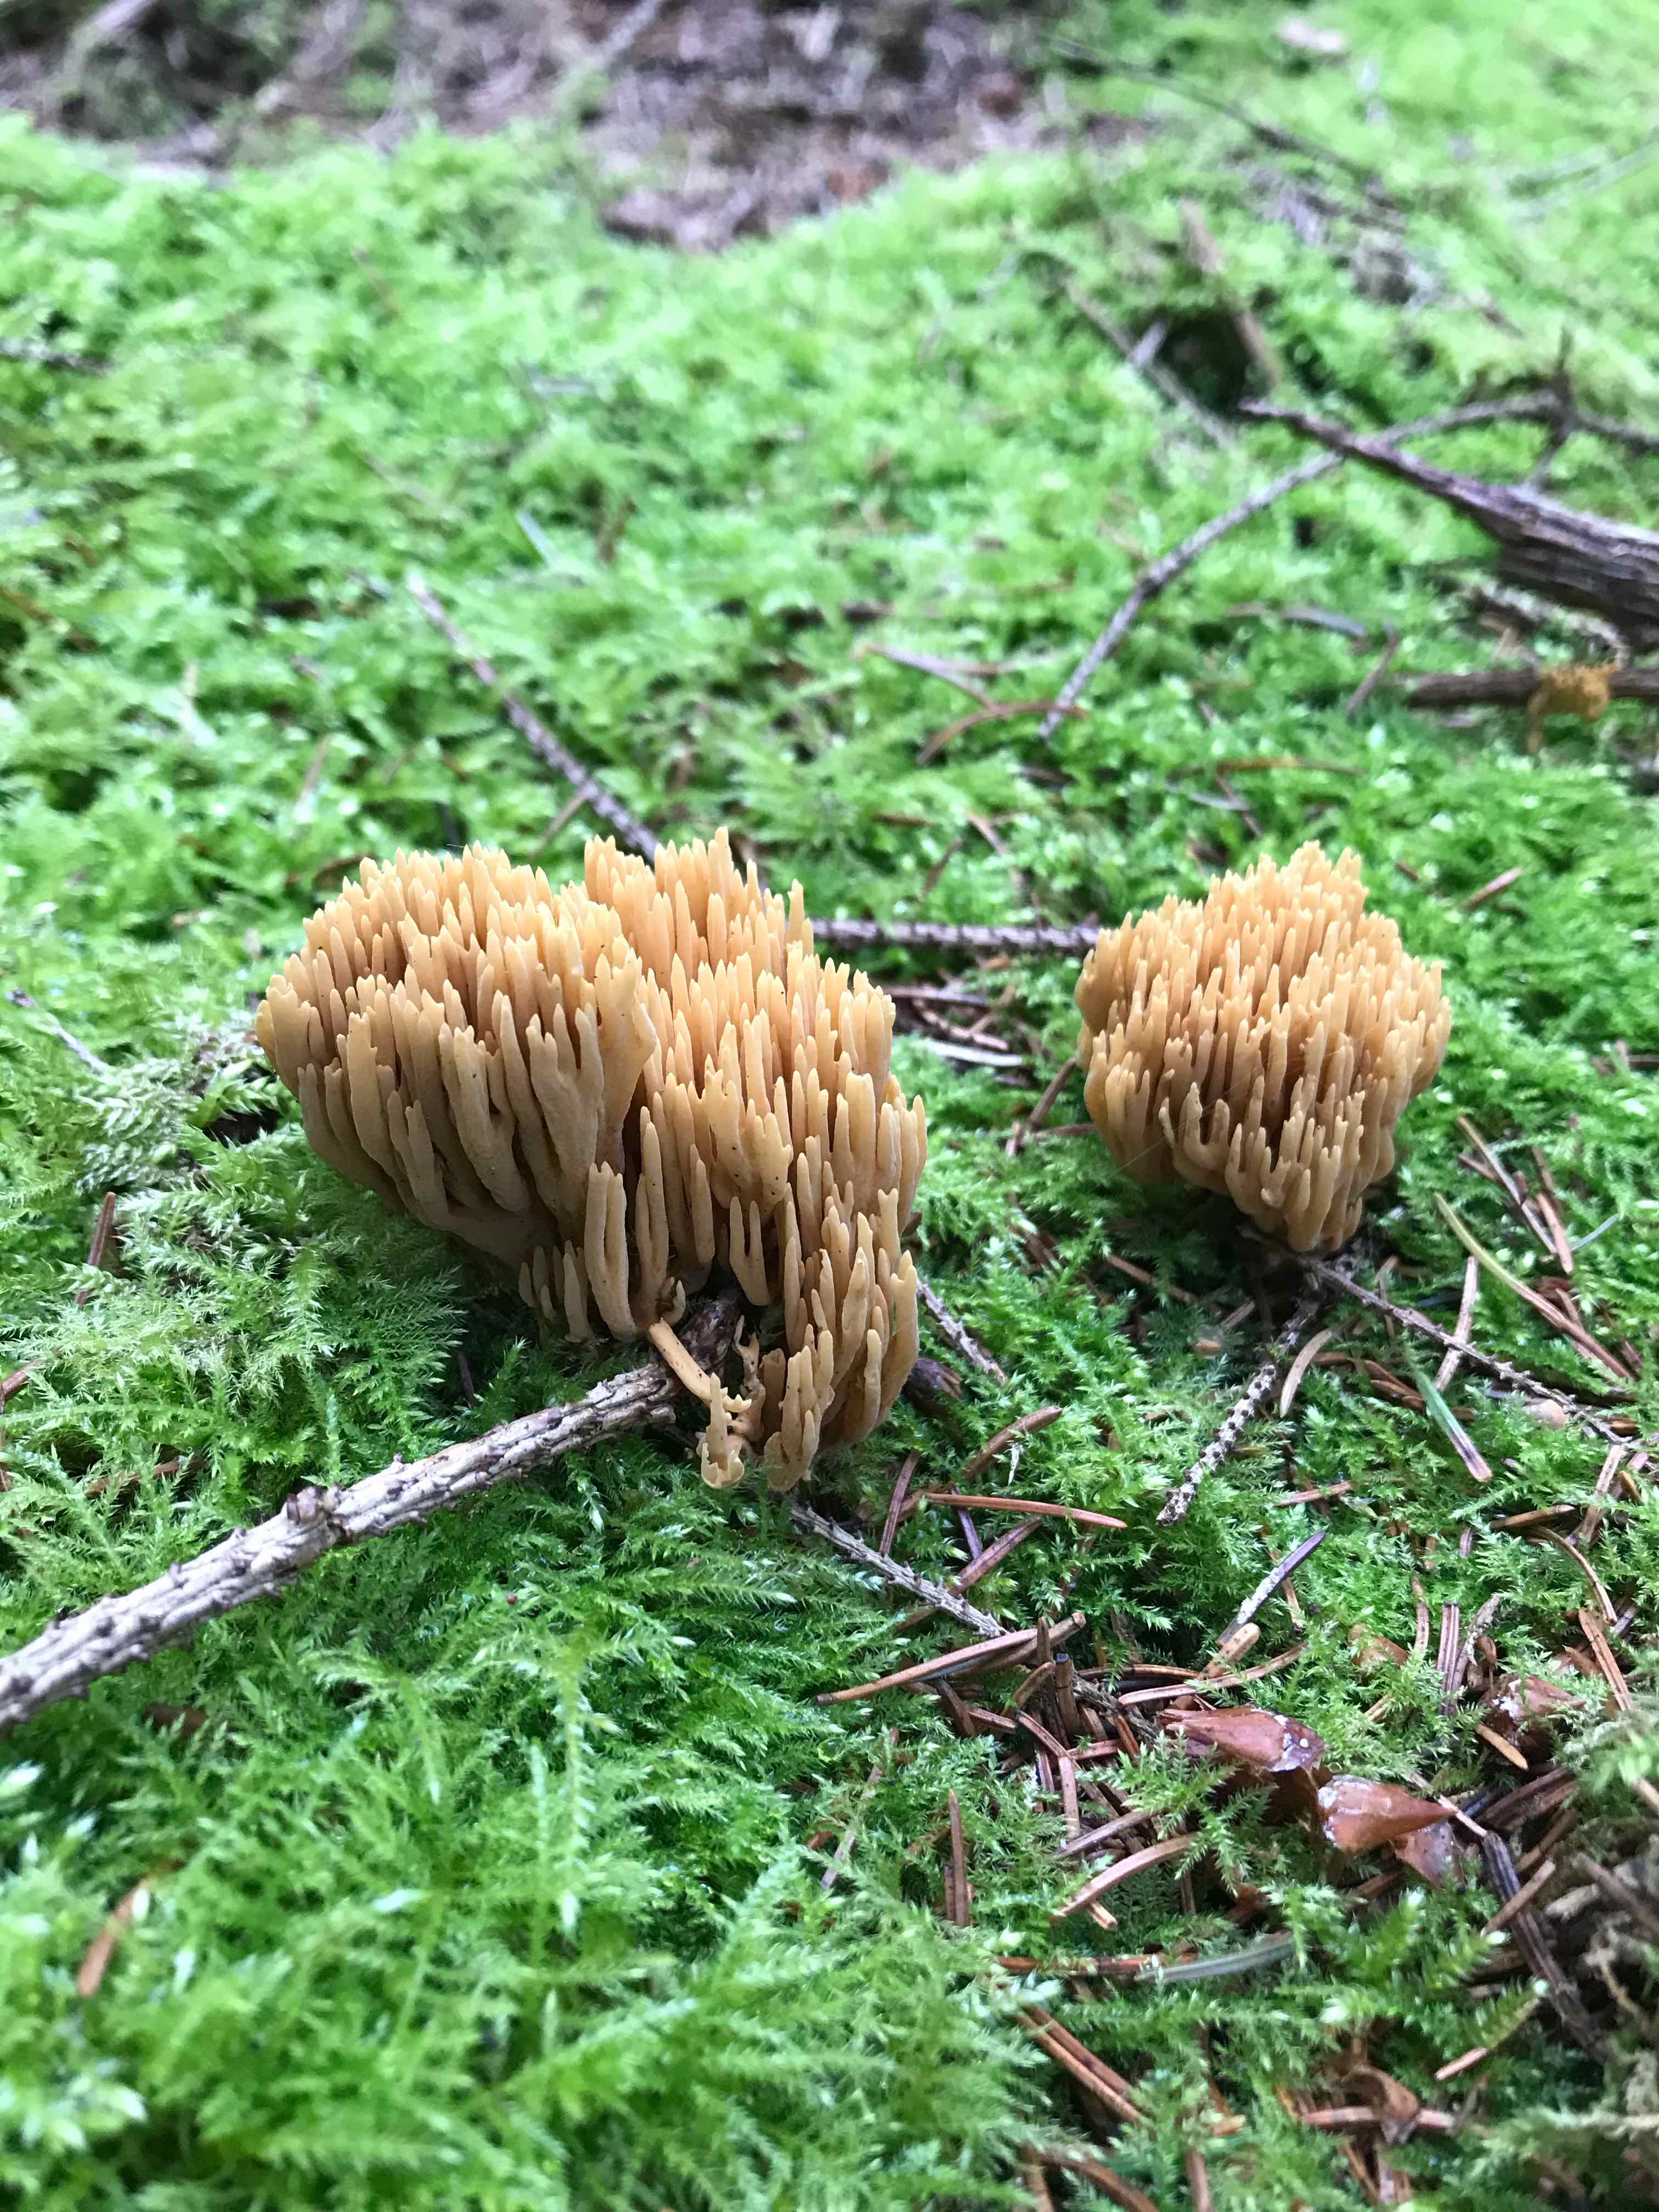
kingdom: Fungi
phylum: Basidiomycota
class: Agaricomycetes
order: Gomphales
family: Gomphaceae
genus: Phaeoclavulina
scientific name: Phaeoclavulina eumorpha
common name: gran-koralsvamp
